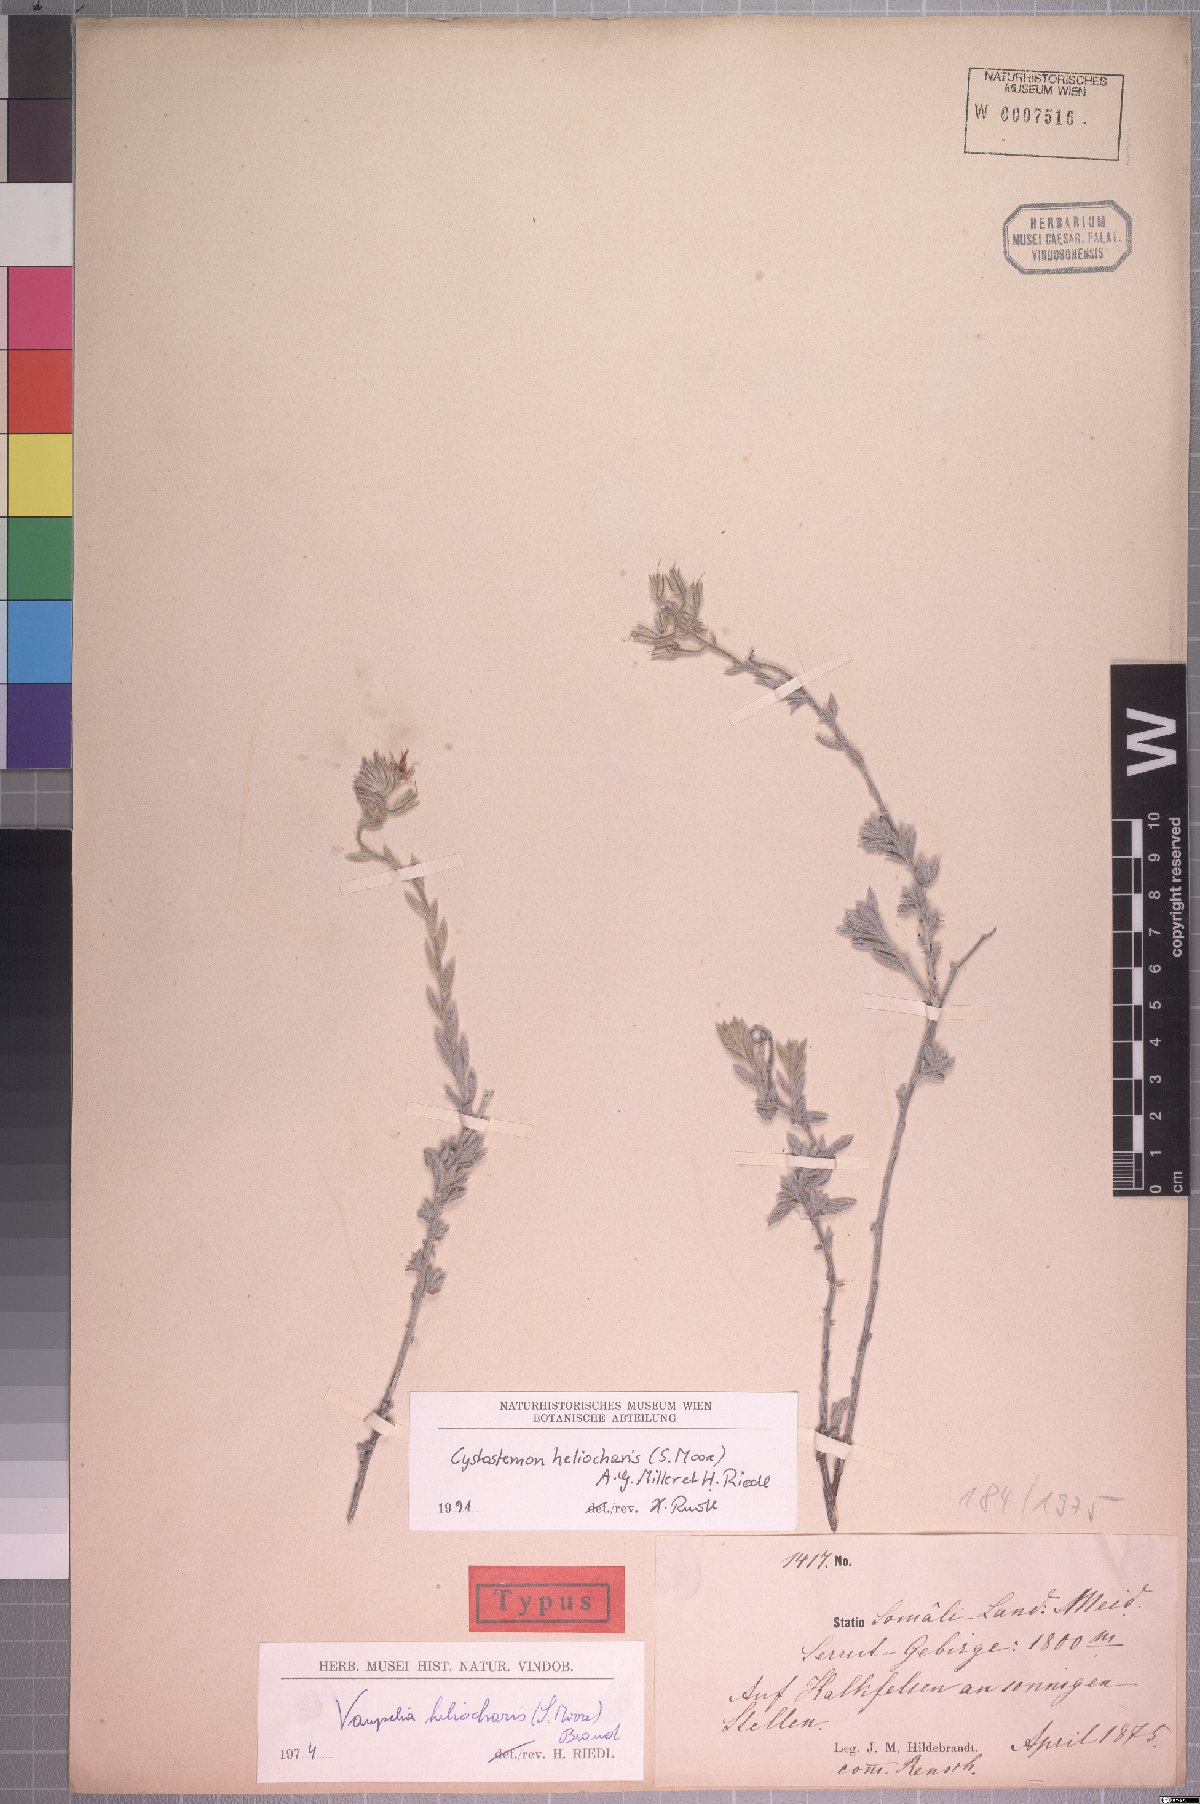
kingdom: Plantae
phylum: Tracheophyta
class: Magnoliopsida
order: Boraginales
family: Boraginaceae
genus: Cystostemon
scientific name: Cystostemon heliocharis
